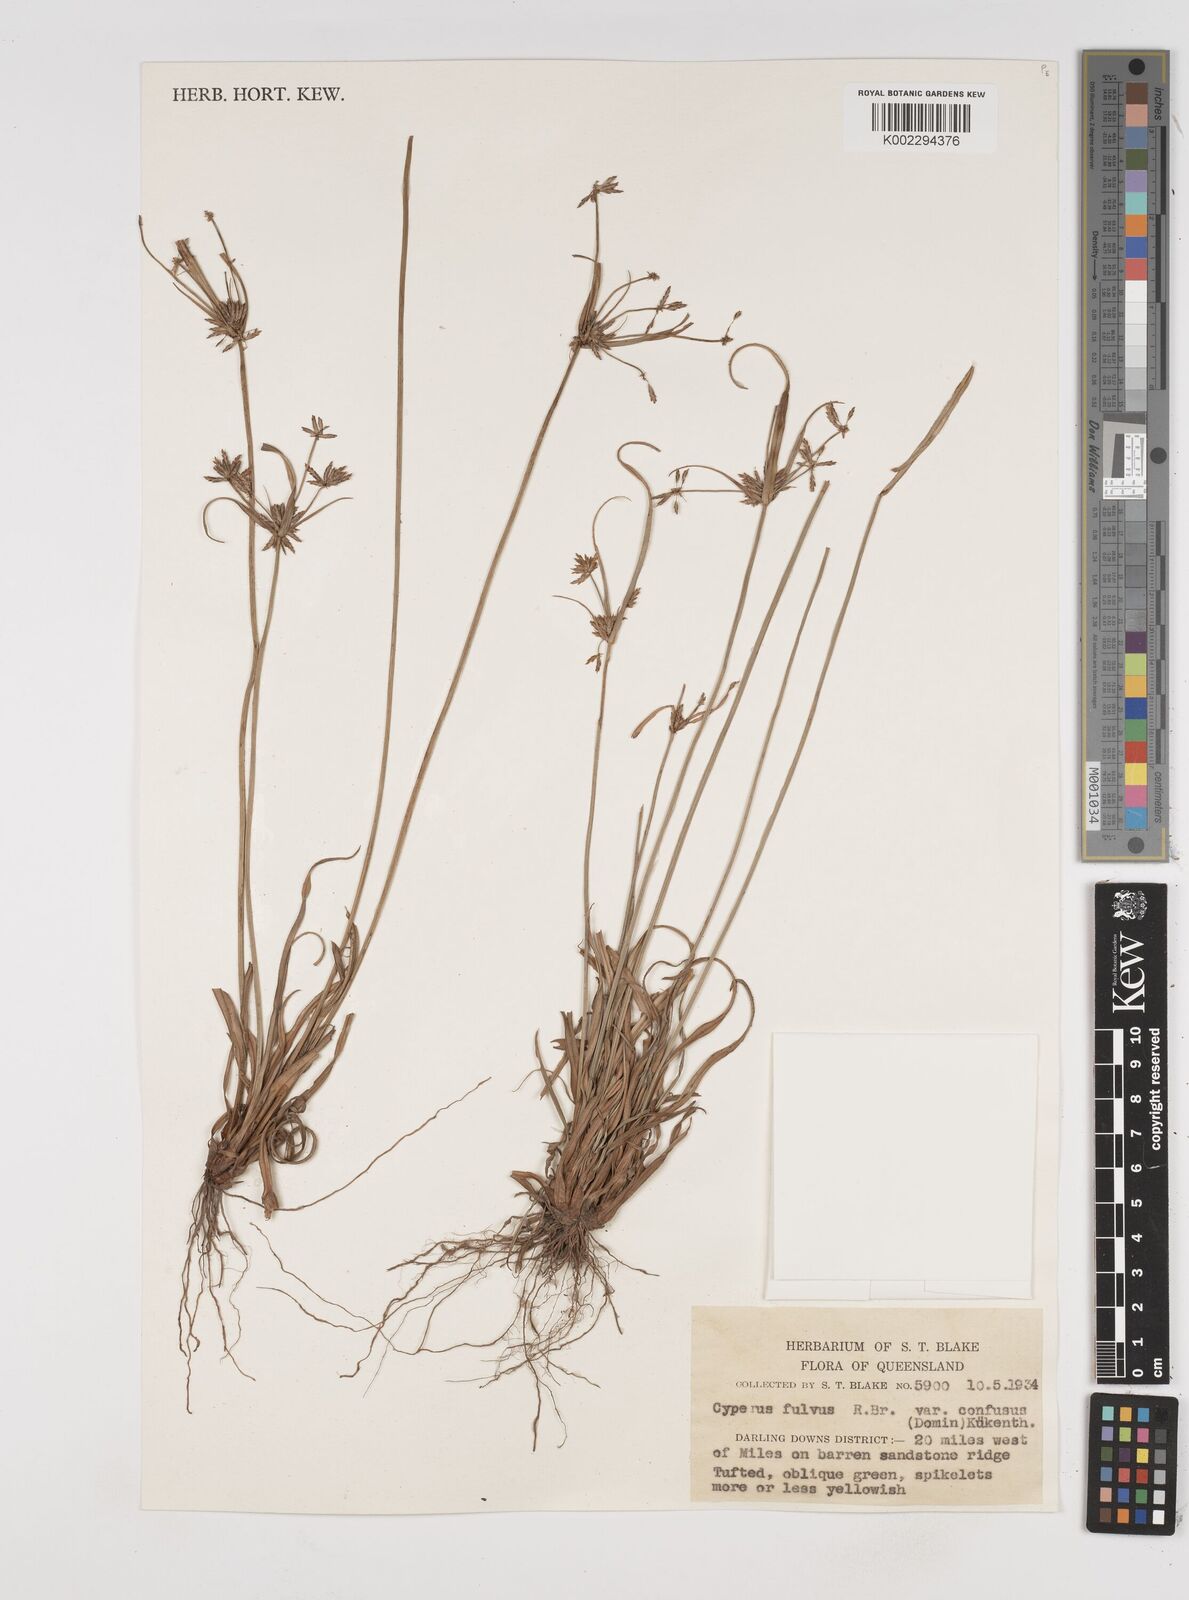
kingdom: Plantae
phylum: Tracheophyta
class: Liliopsida
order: Poales
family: Cyperaceae
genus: Cyperus
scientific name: Cyperus fulvus
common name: Sticky sedge
